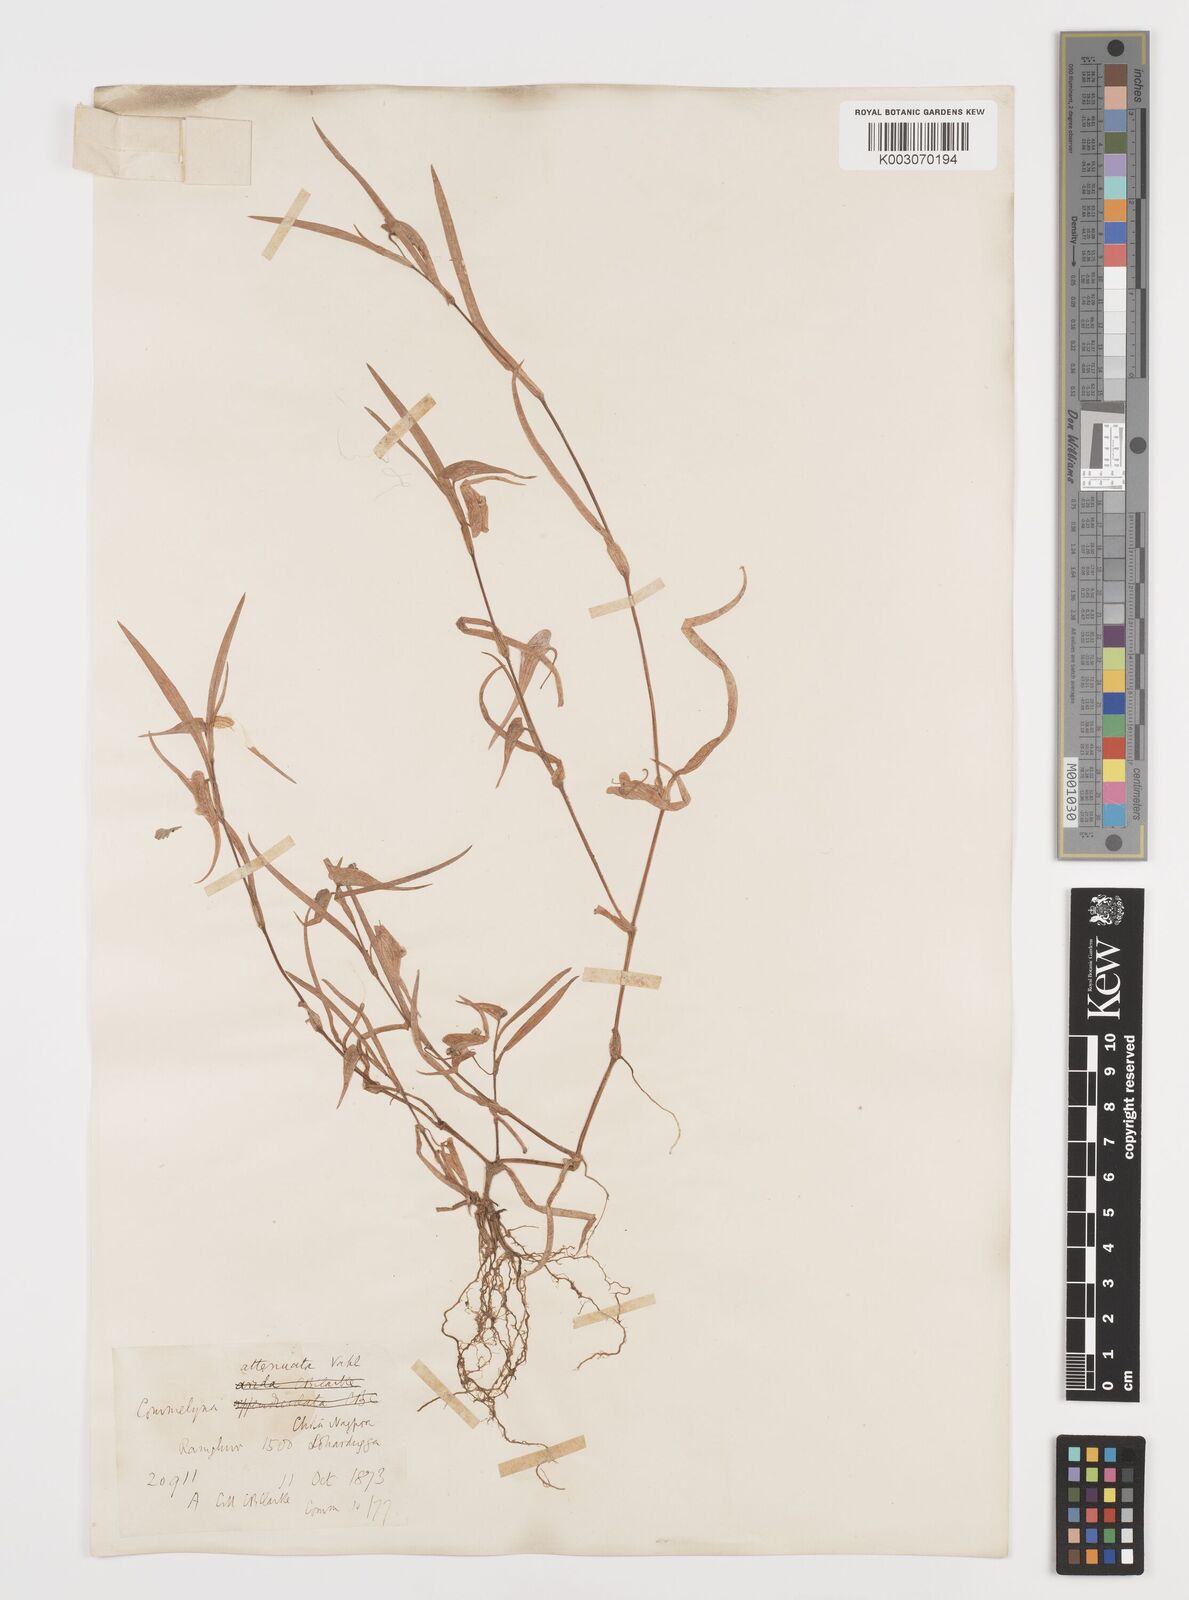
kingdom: Plantae
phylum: Tracheophyta
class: Liliopsida
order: Commelinales
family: Commelinaceae
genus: Commelina
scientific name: Commelina attenuata
